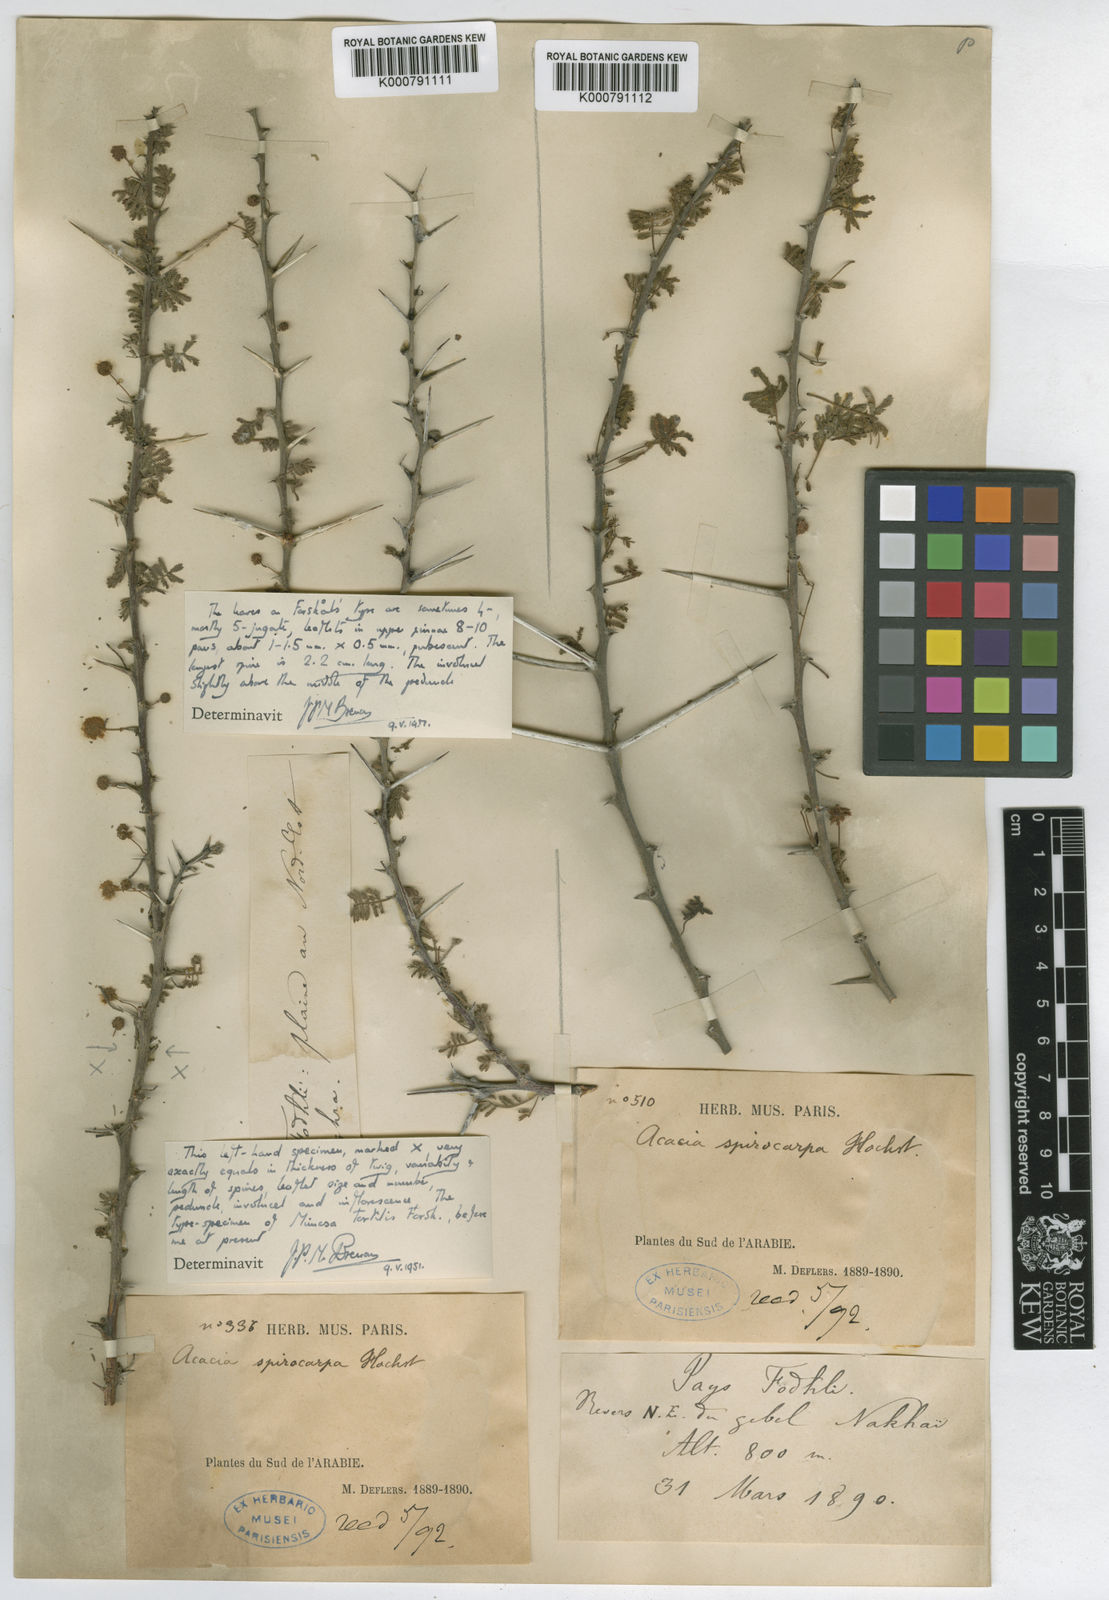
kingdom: Plantae
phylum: Tracheophyta
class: Magnoliopsida
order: Fabales
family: Fabaceae
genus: Vachellia
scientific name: Vachellia tortilis
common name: Umbrella thorn acacia
